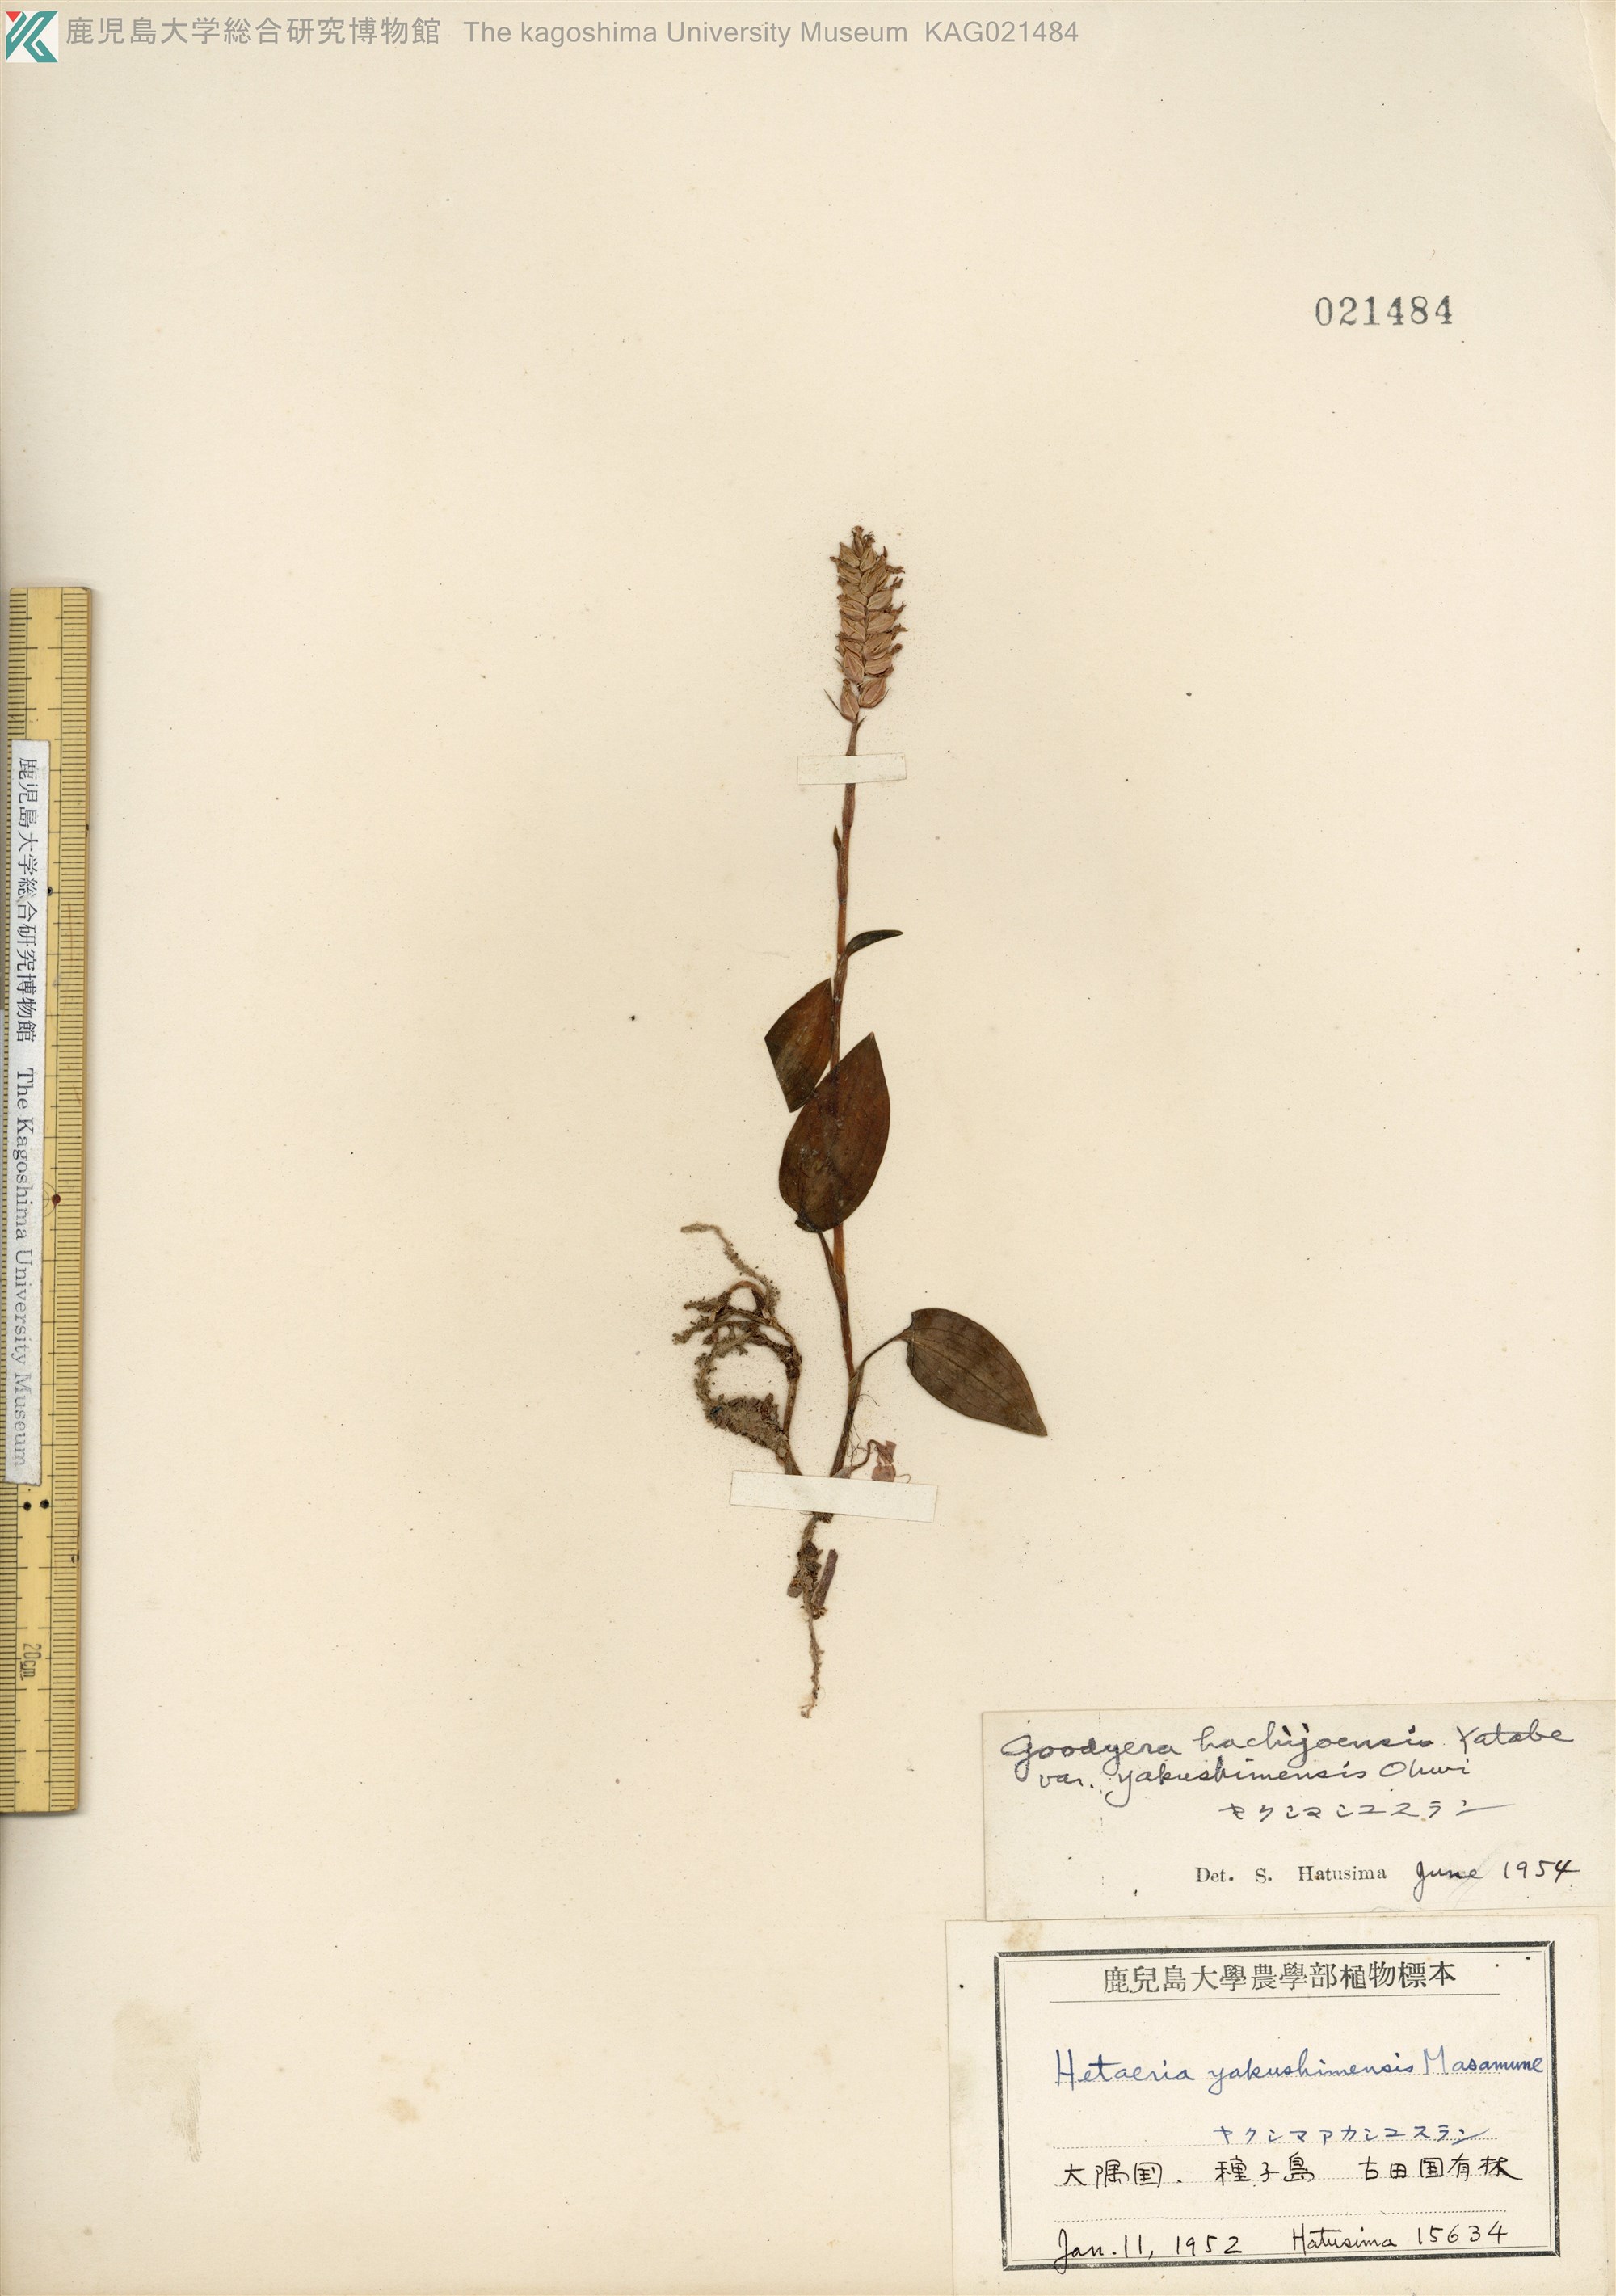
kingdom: Plantae
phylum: Tracheophyta
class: Liliopsida
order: Asparagales
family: Orchidaceae
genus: Goodyera
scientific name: Goodyera hachijoensis
